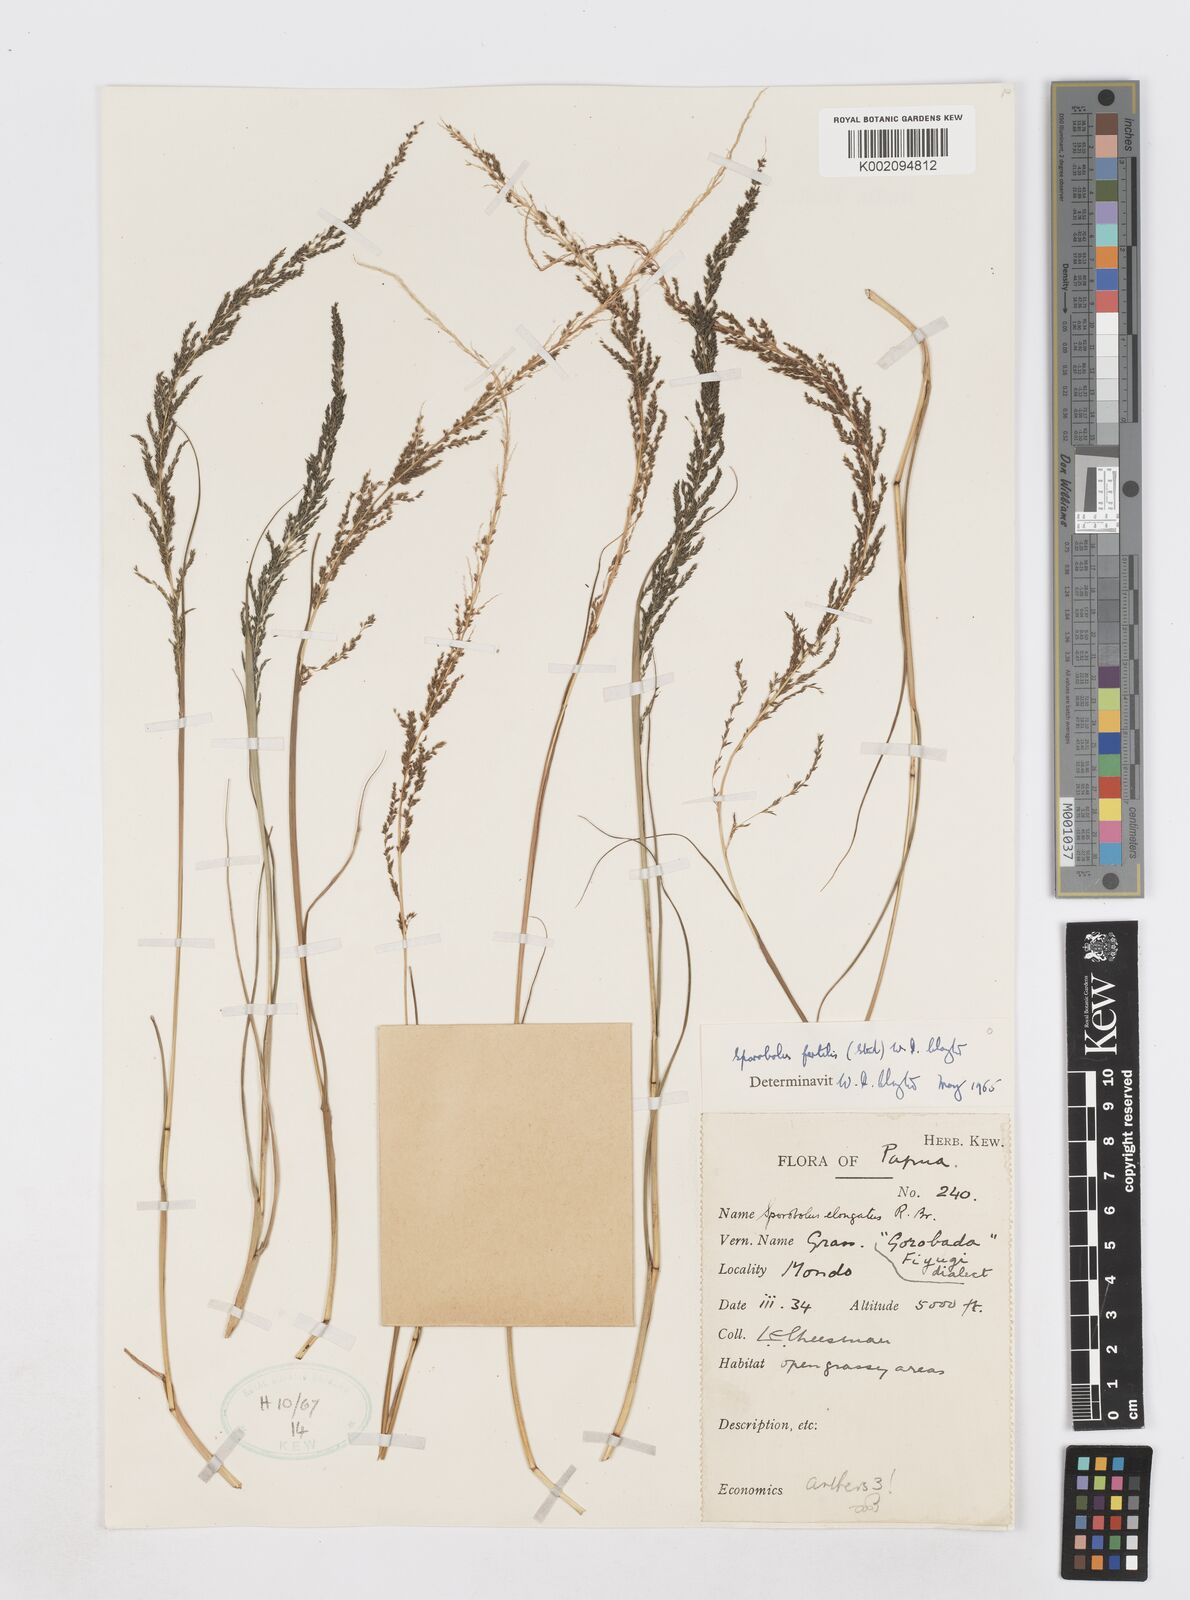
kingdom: Plantae
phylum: Tracheophyta
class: Liliopsida
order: Poales
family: Poaceae
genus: Sporobolus
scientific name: Sporobolus fertilis
